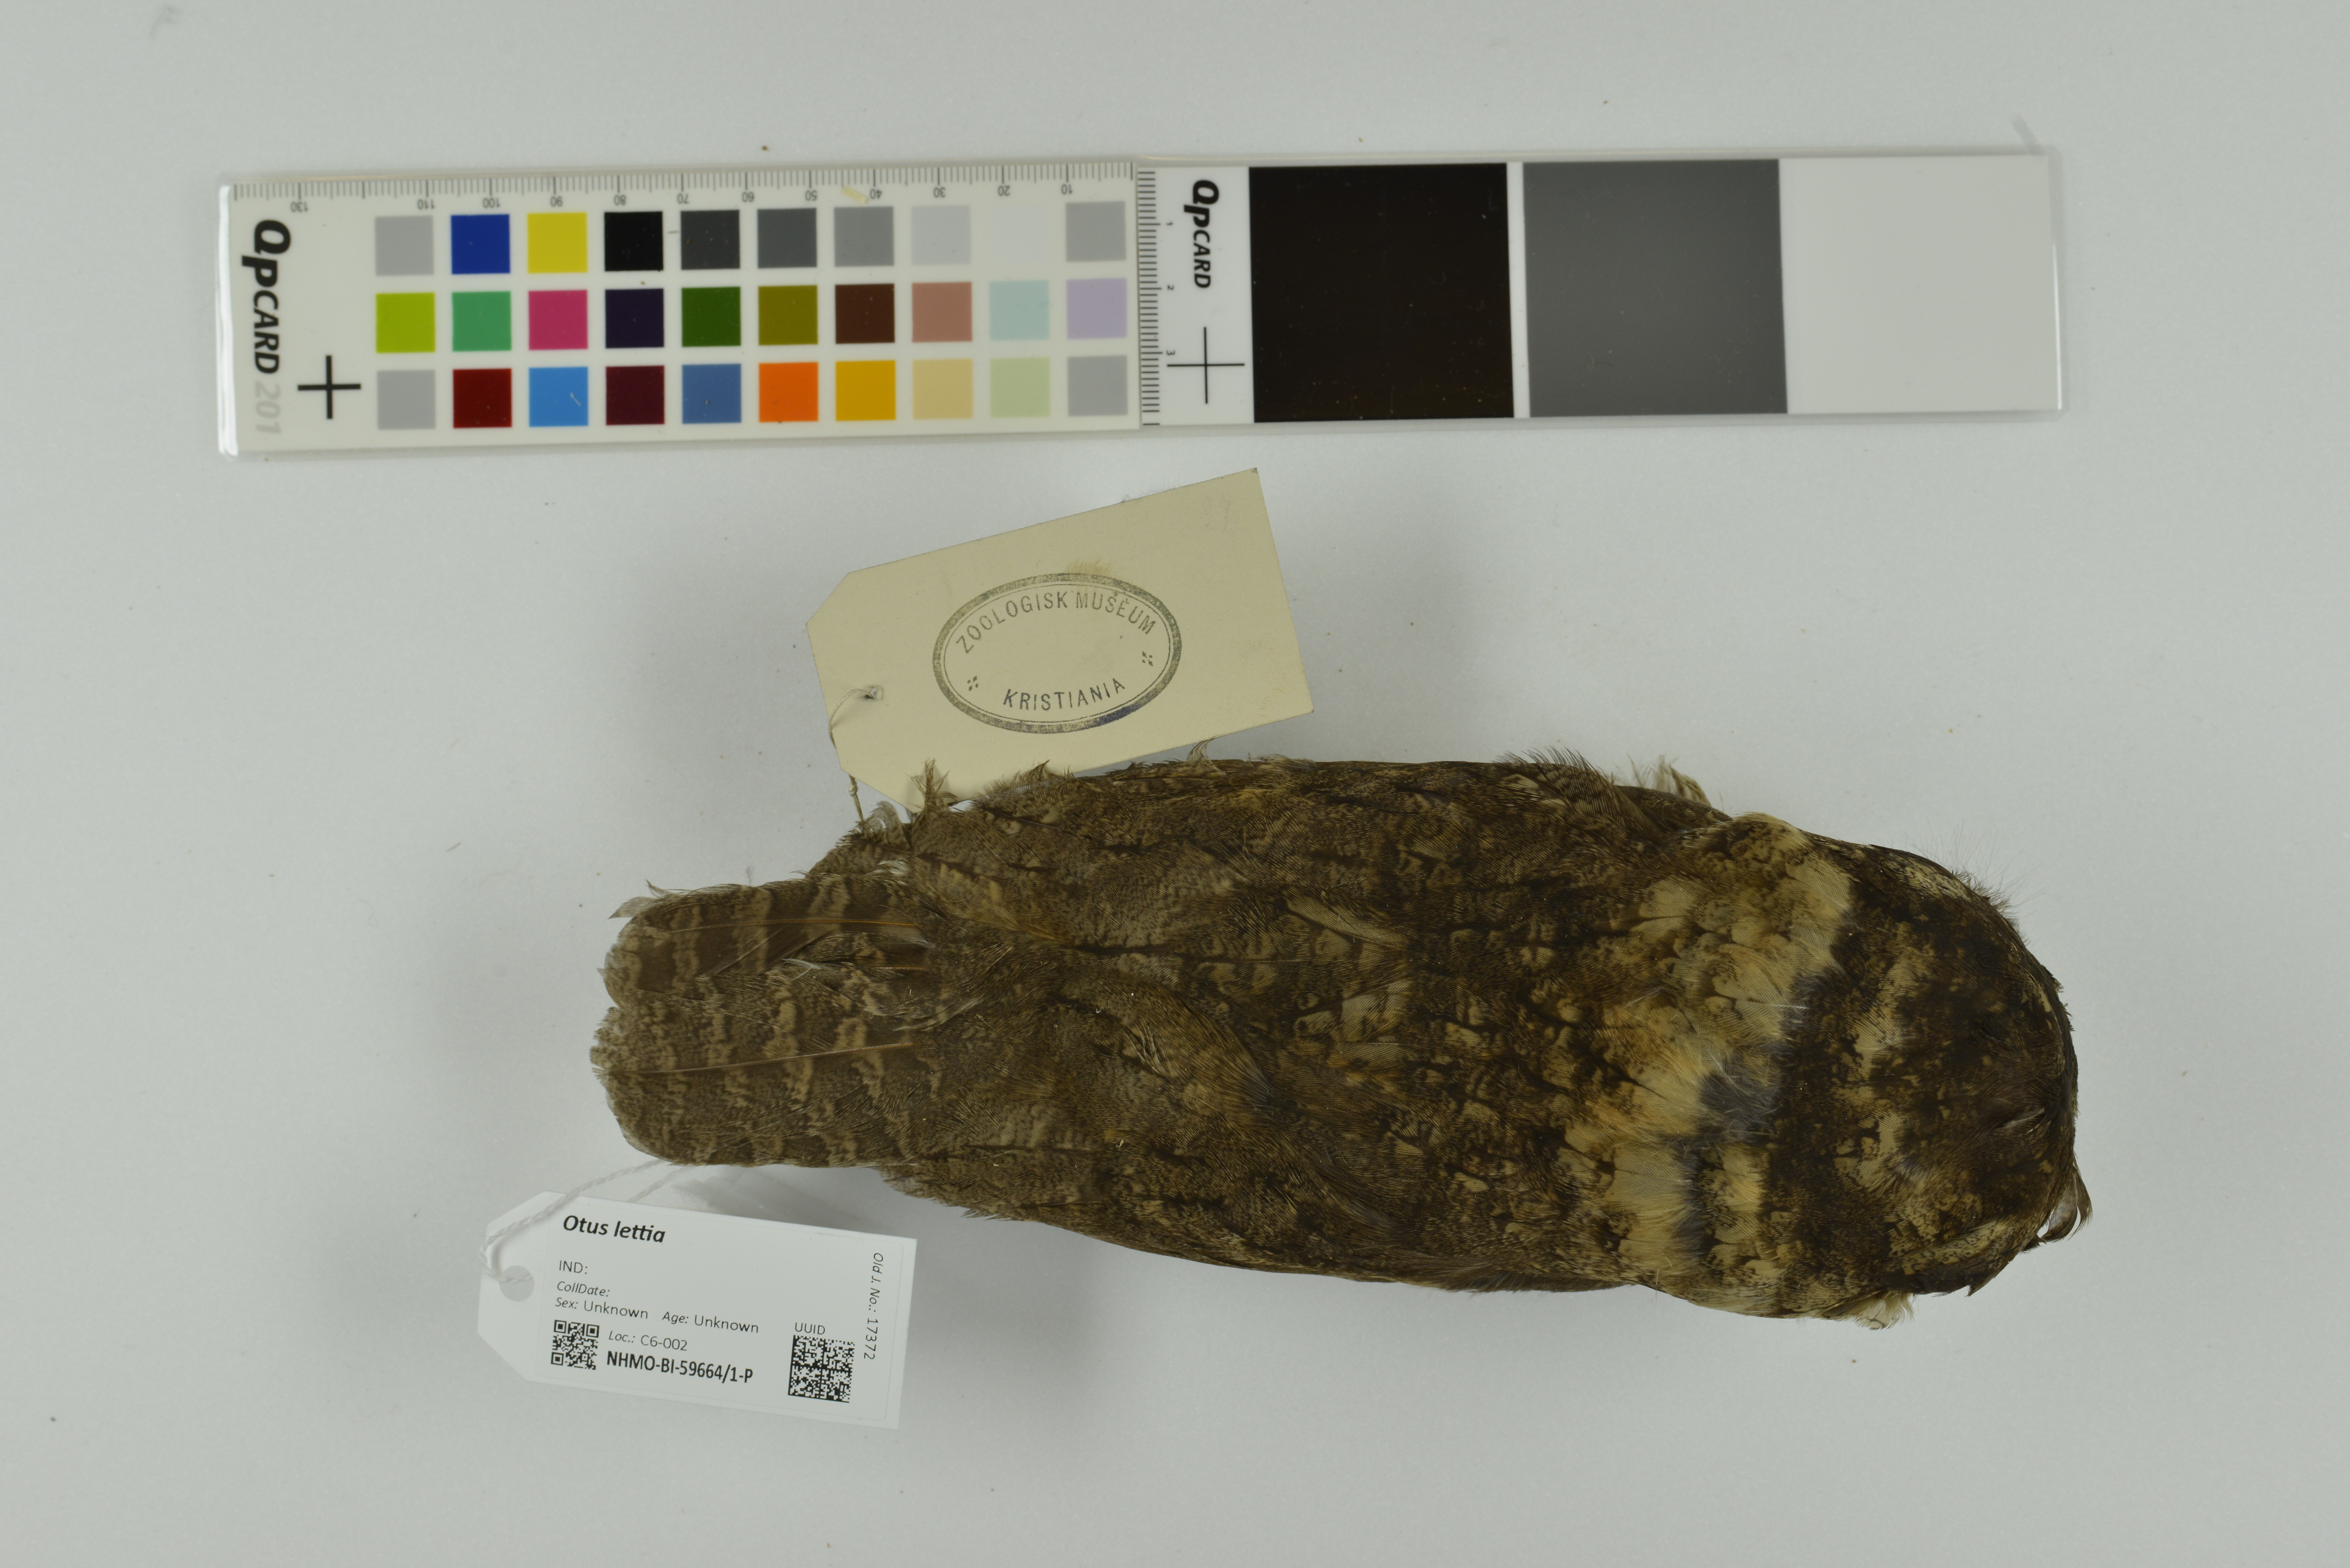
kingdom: Animalia
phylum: Chordata
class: Aves
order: Strigiformes
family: Strigidae
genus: Otus
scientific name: Otus lettia
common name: Collared scops owl
